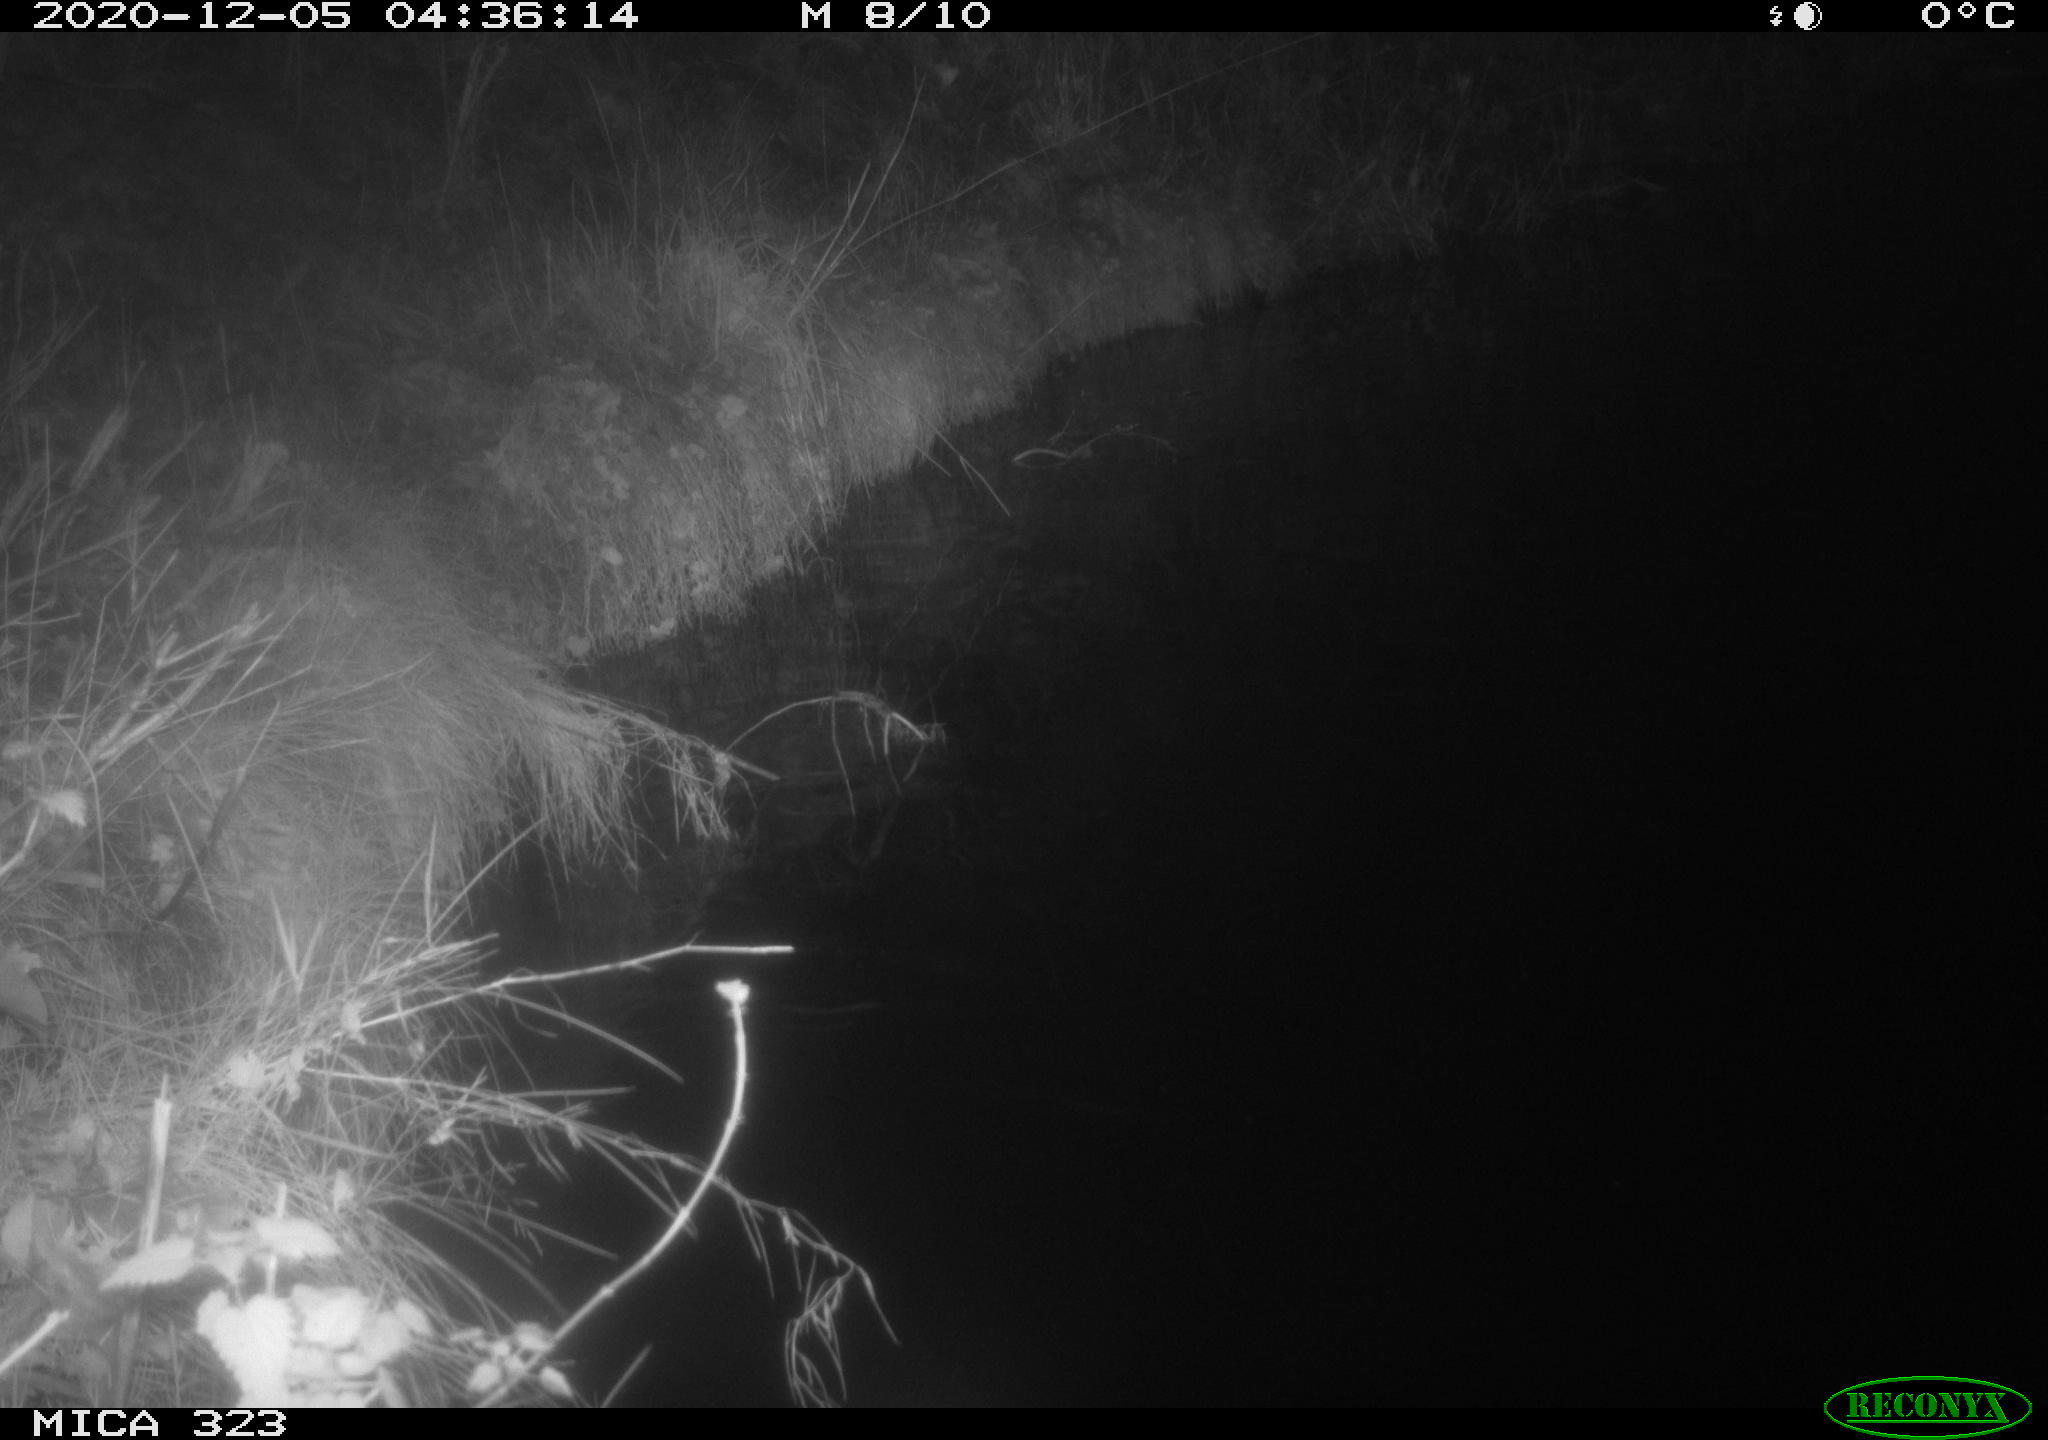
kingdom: Animalia
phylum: Chordata
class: Mammalia
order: Rodentia
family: Myocastoridae
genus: Myocastor
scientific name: Myocastor coypus
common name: Coypu
